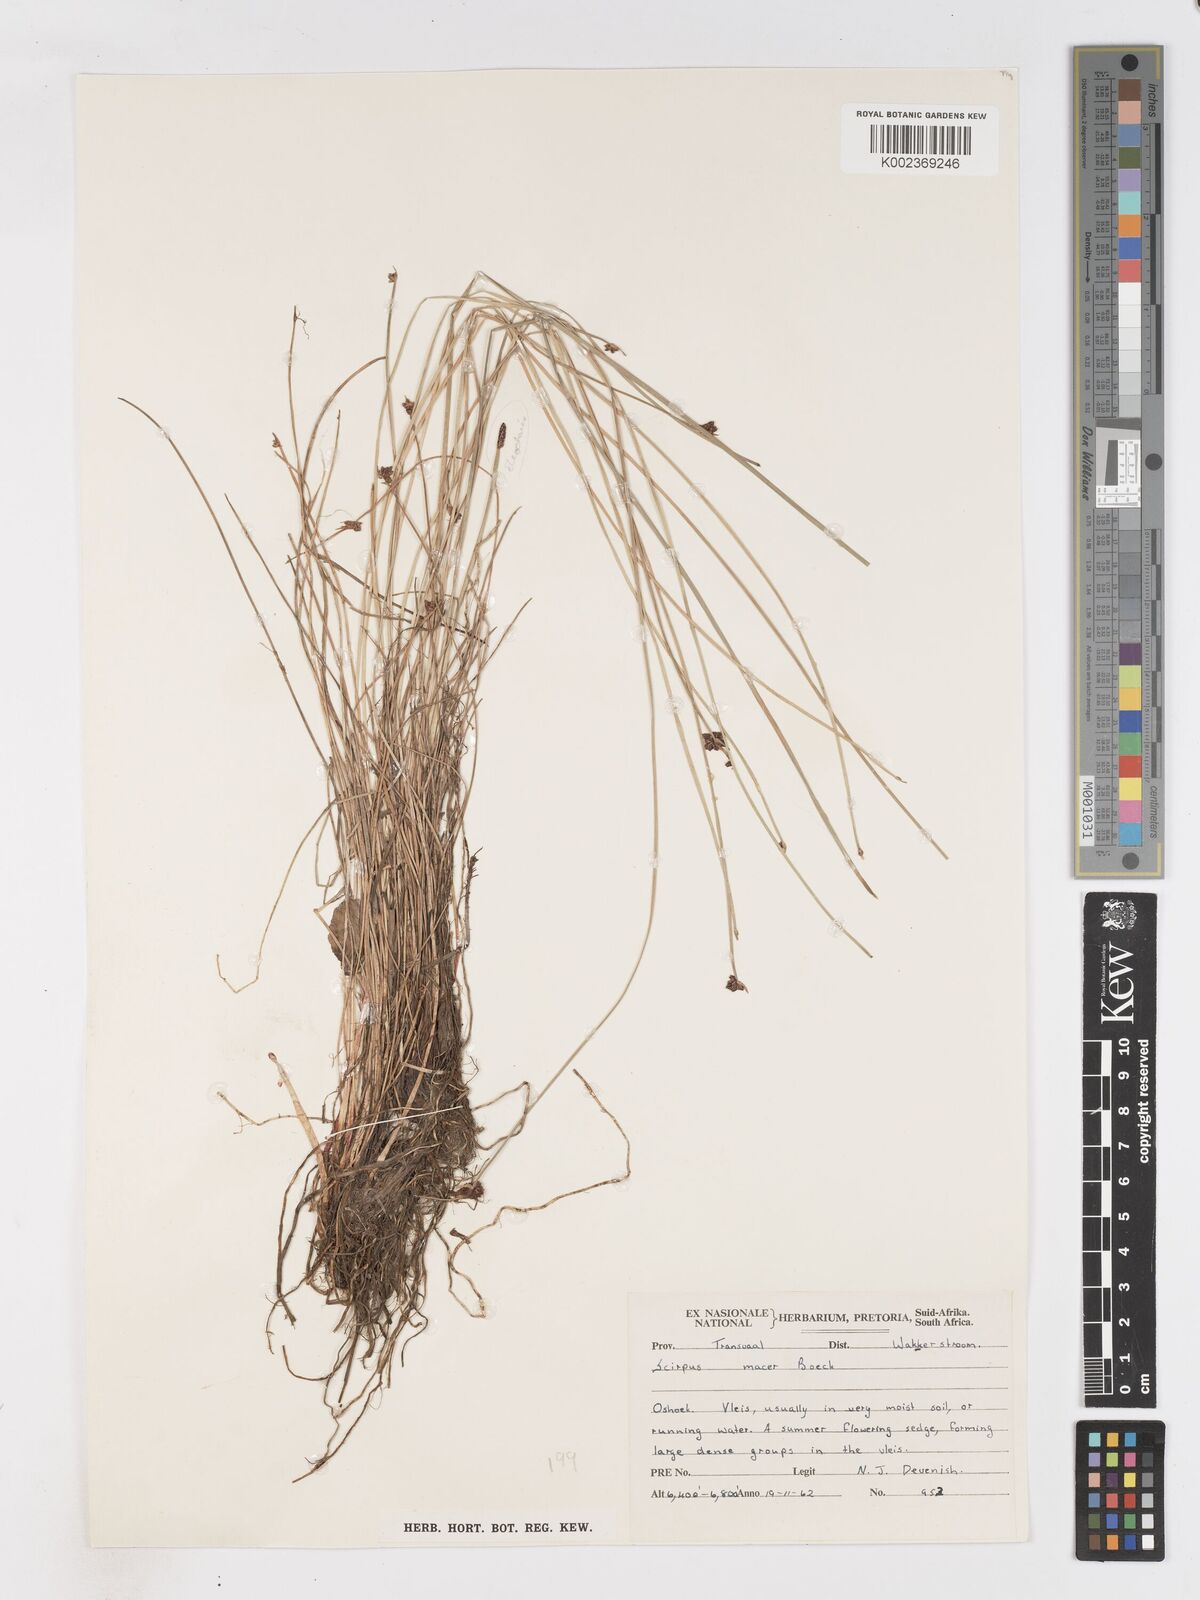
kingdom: Plantae
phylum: Tracheophyta
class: Liliopsida
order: Poales
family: Cyperaceae
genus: Isolepis
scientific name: Isolepis costata
